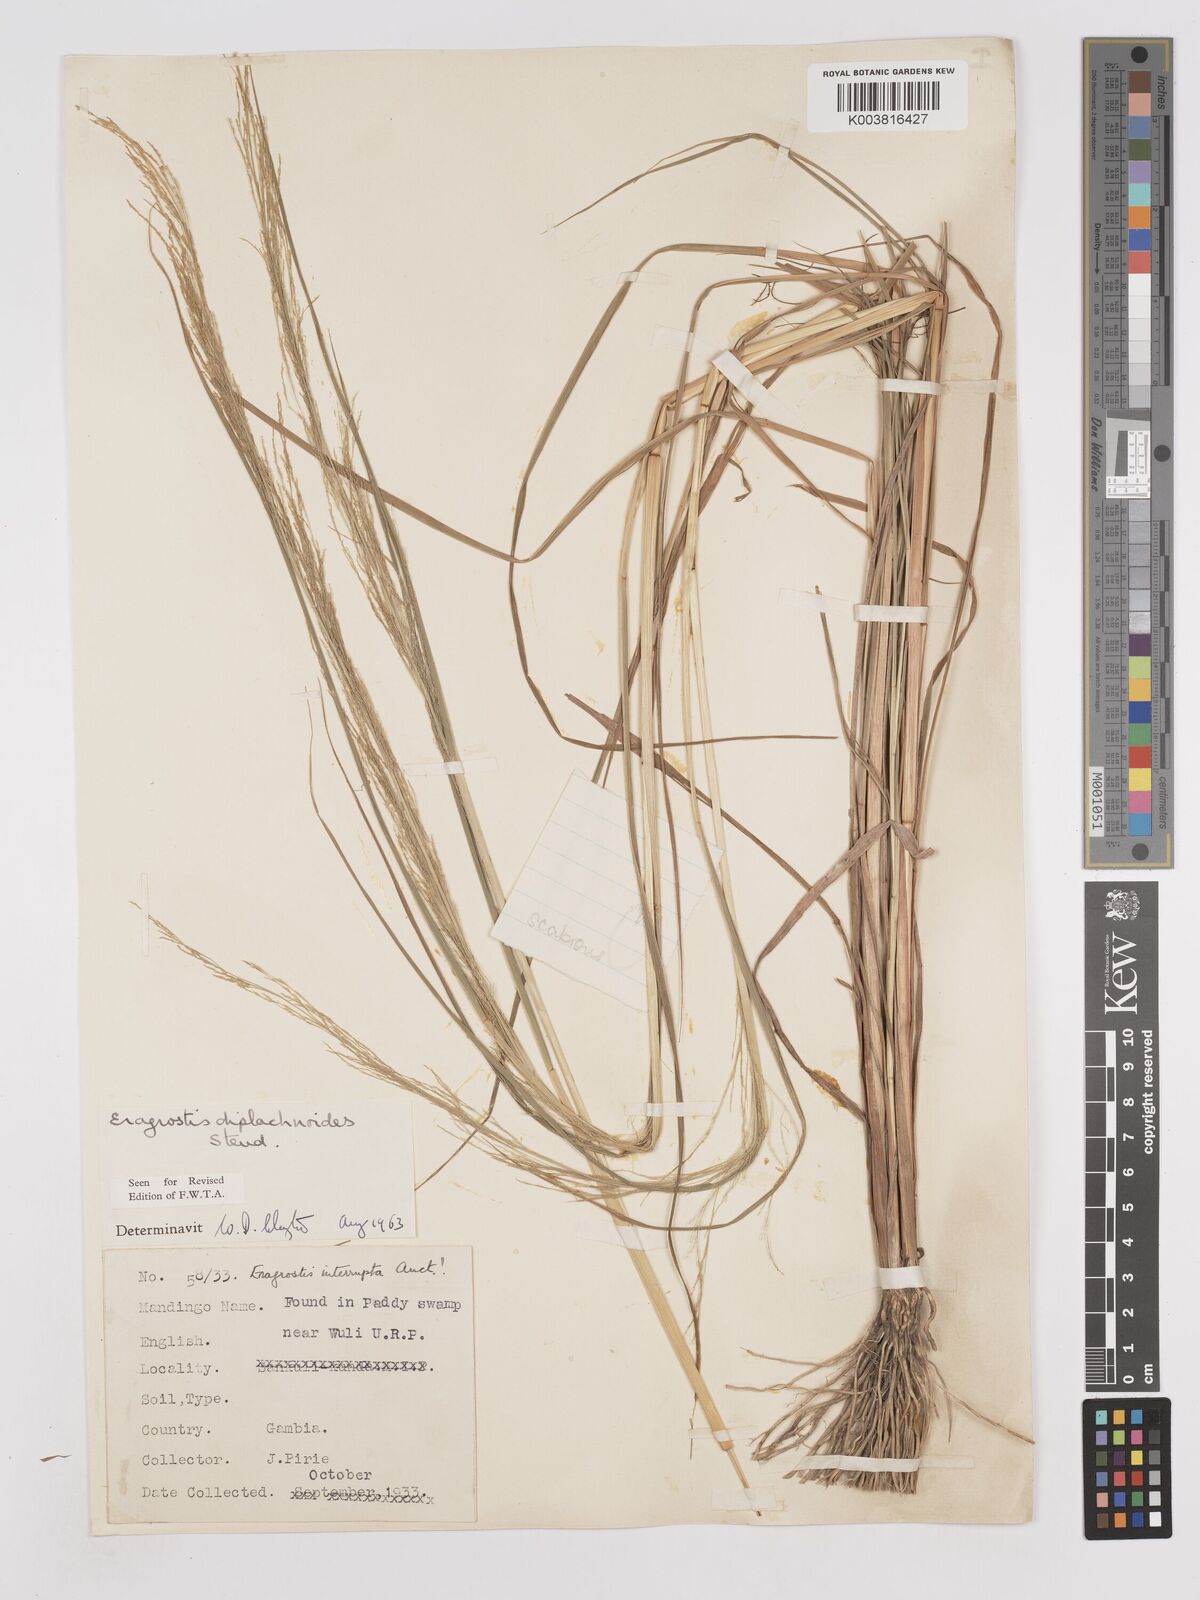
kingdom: Plantae
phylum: Tracheophyta
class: Liliopsida
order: Poales
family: Poaceae
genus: Eragrostis
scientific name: Eragrostis japonica
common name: Pond lovegrass
